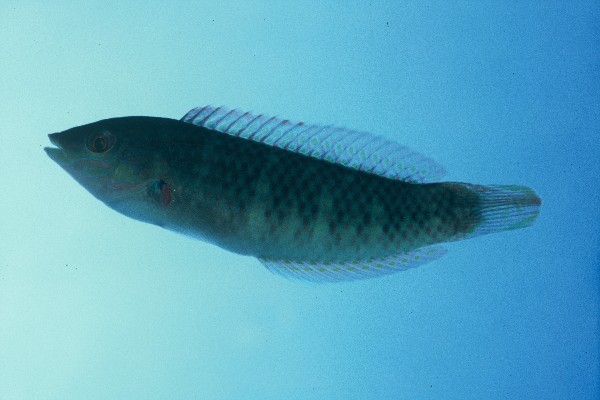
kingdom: Animalia
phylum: Chordata
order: Perciformes
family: Labridae
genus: Halichoeres
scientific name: Halichoeres nigrescens
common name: Bubblefin wrasse
